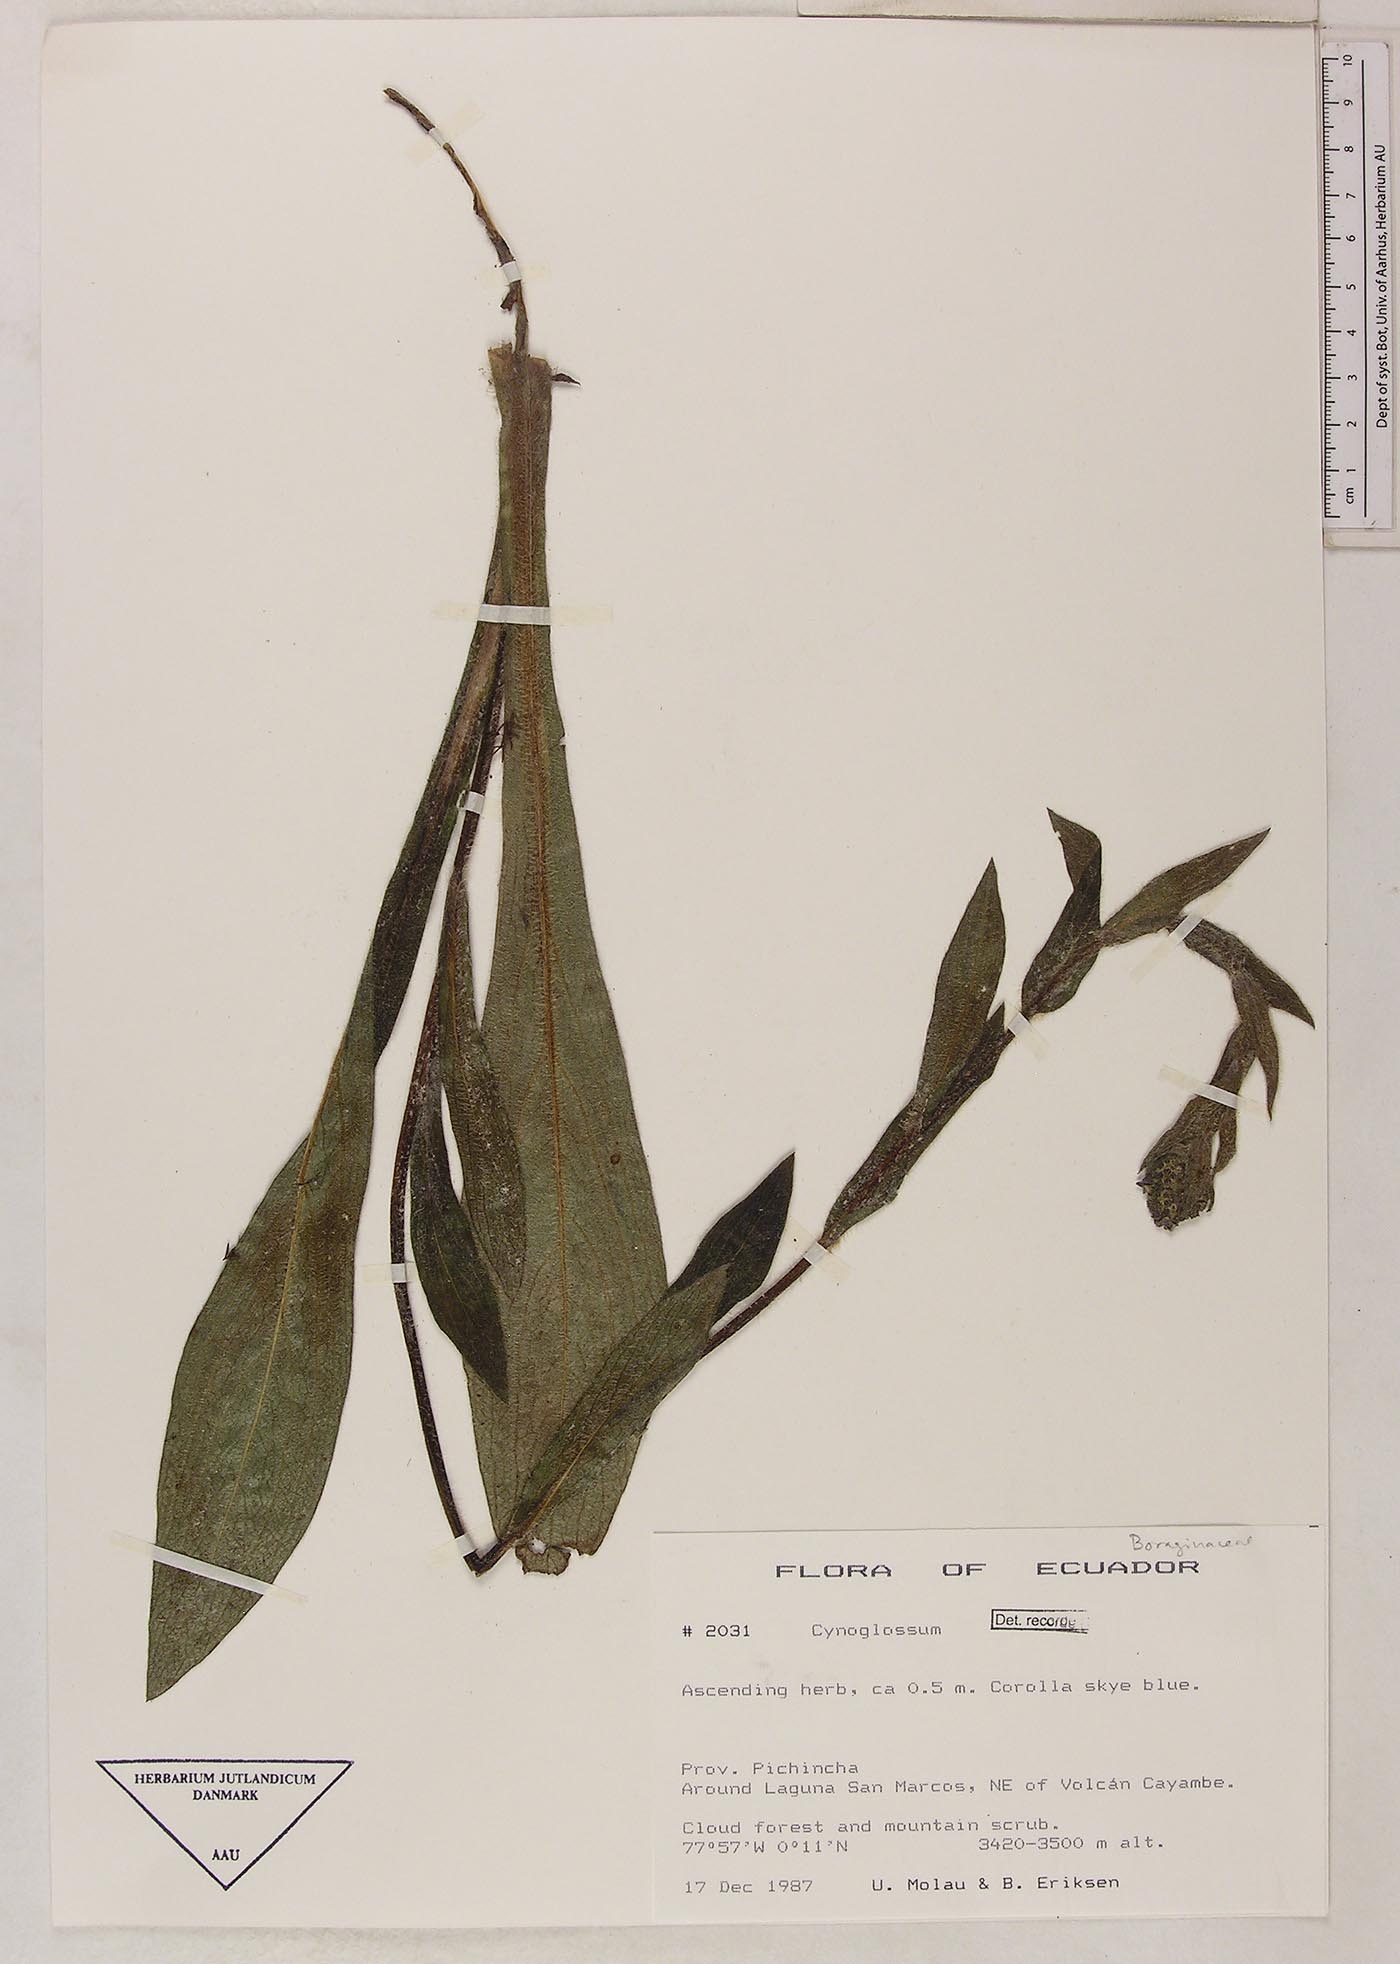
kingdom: Plantae
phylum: Tracheophyta
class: Magnoliopsida
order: Boraginales
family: Boraginaceae
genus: Moritzia
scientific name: Moritzia lindenii
